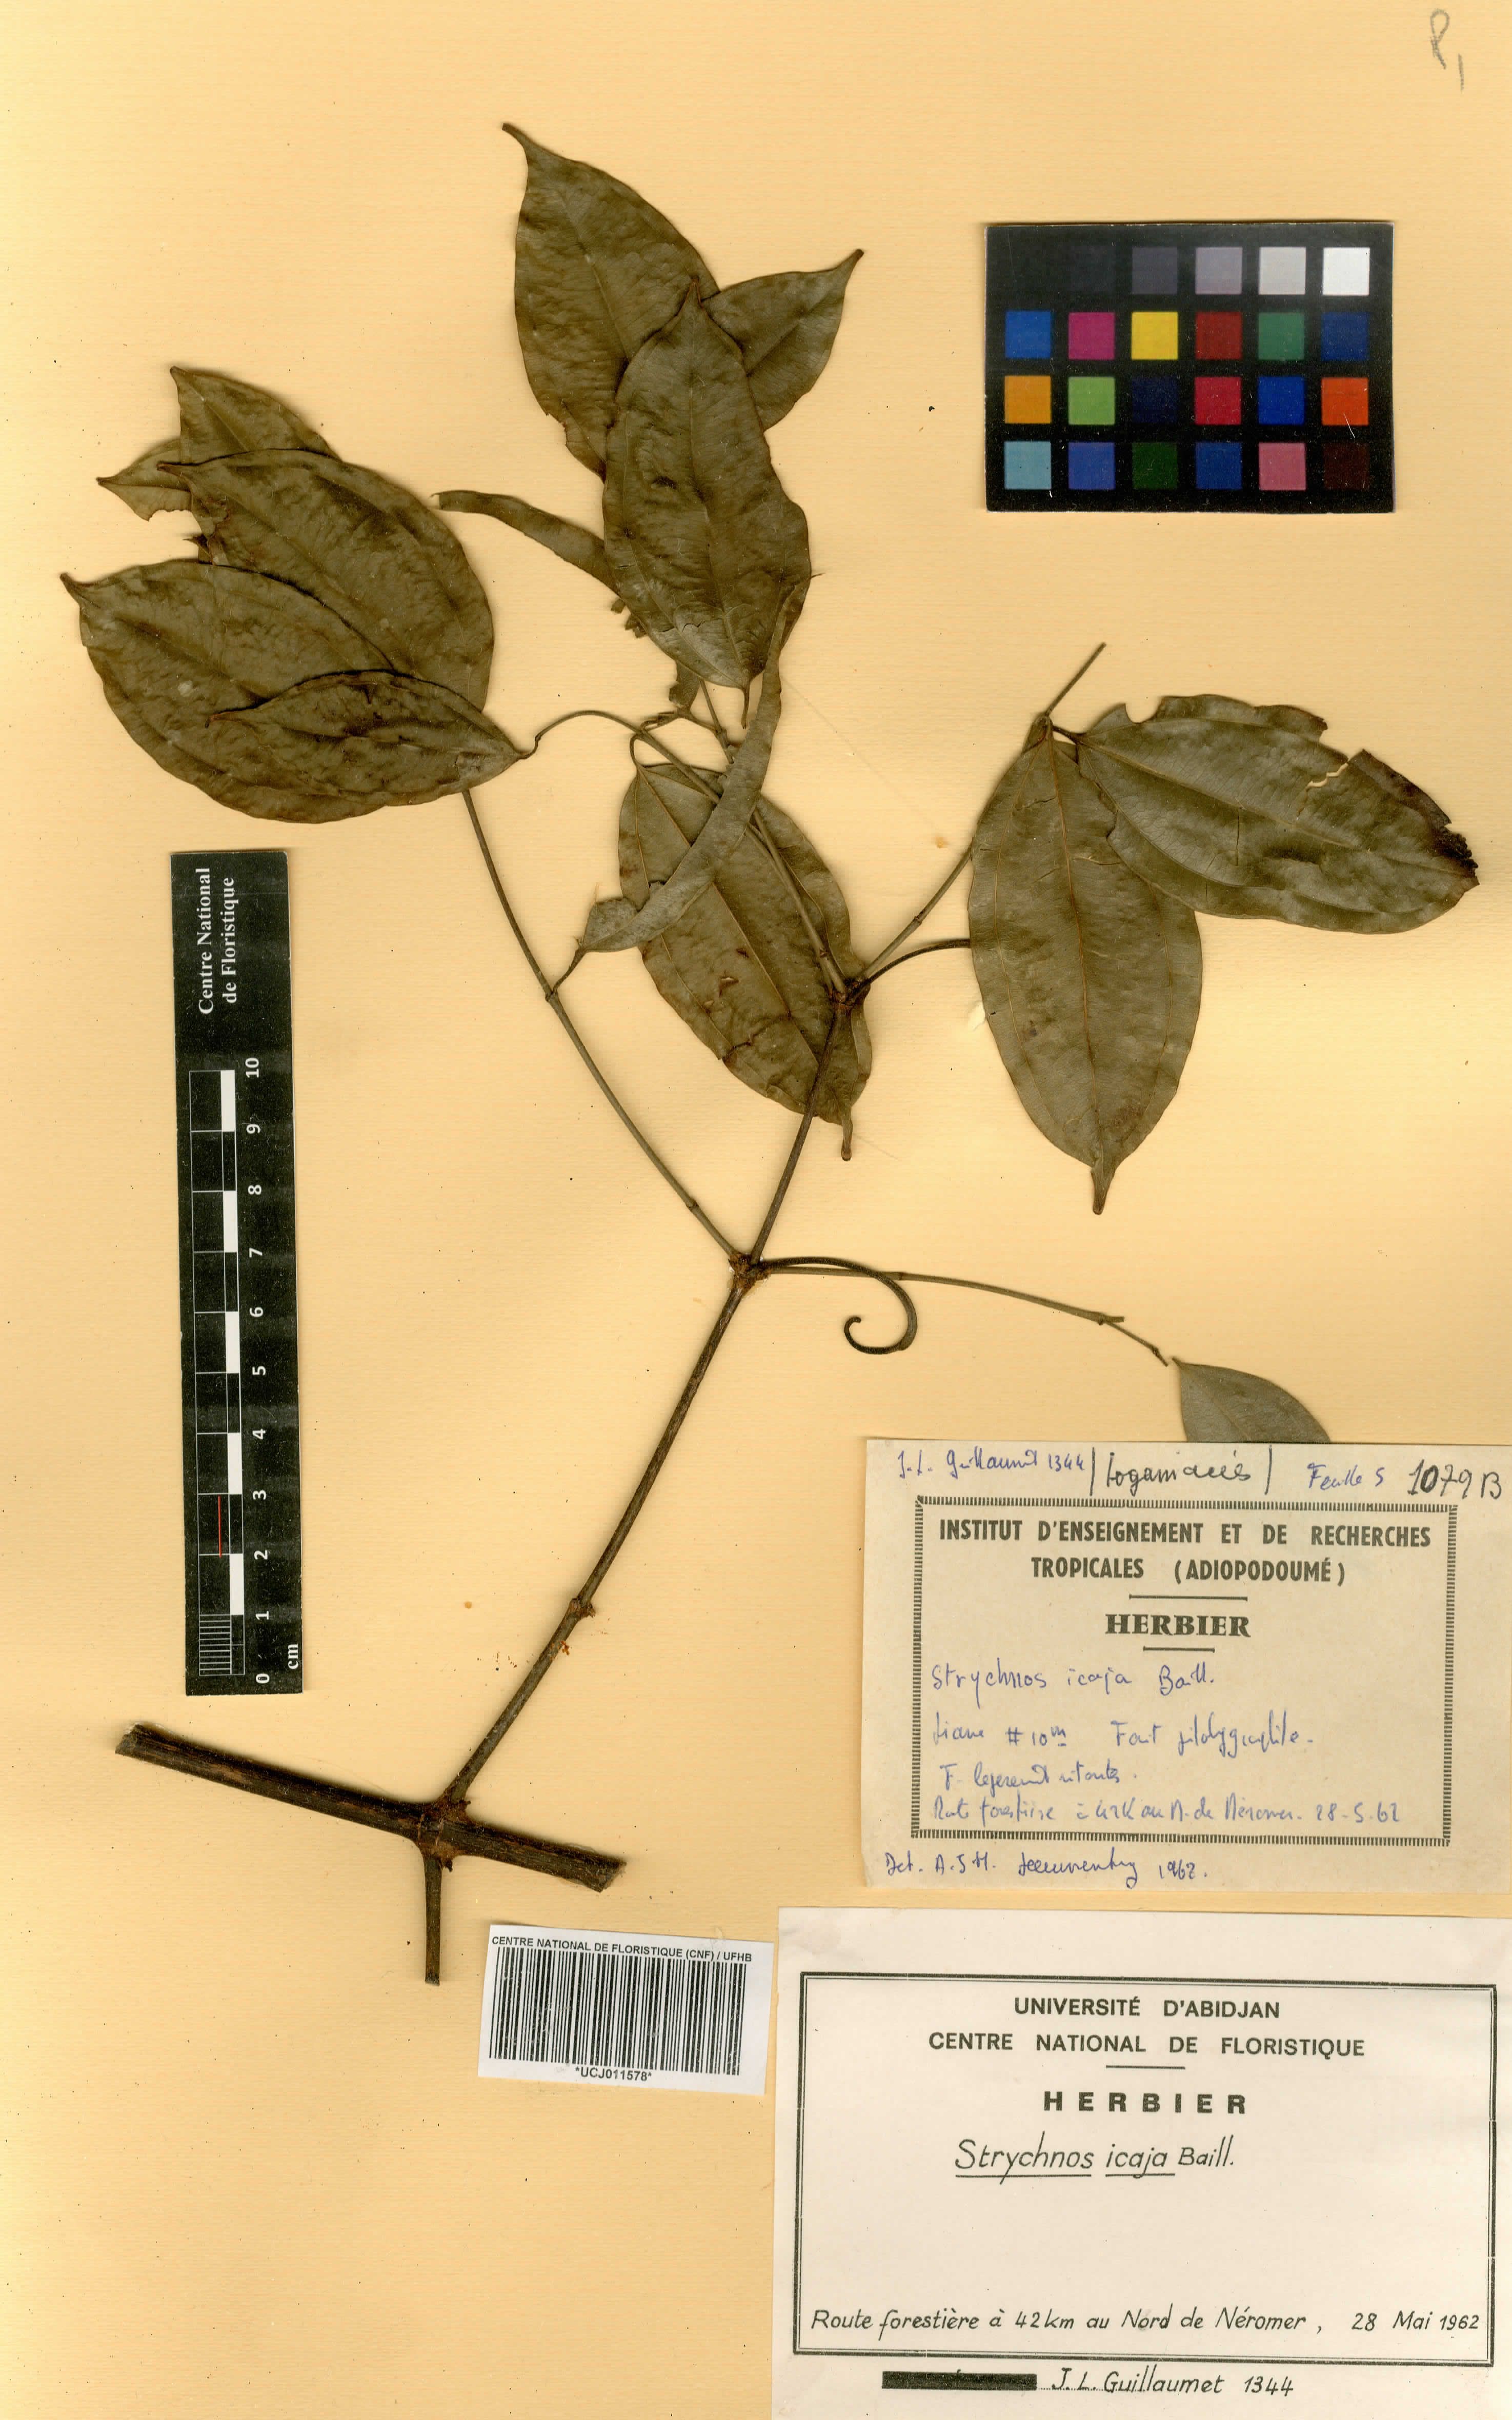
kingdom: Plantae
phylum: Tracheophyta
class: Magnoliopsida
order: Gentianales
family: Loganiaceae
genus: Strychnos
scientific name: Strychnos icaja
